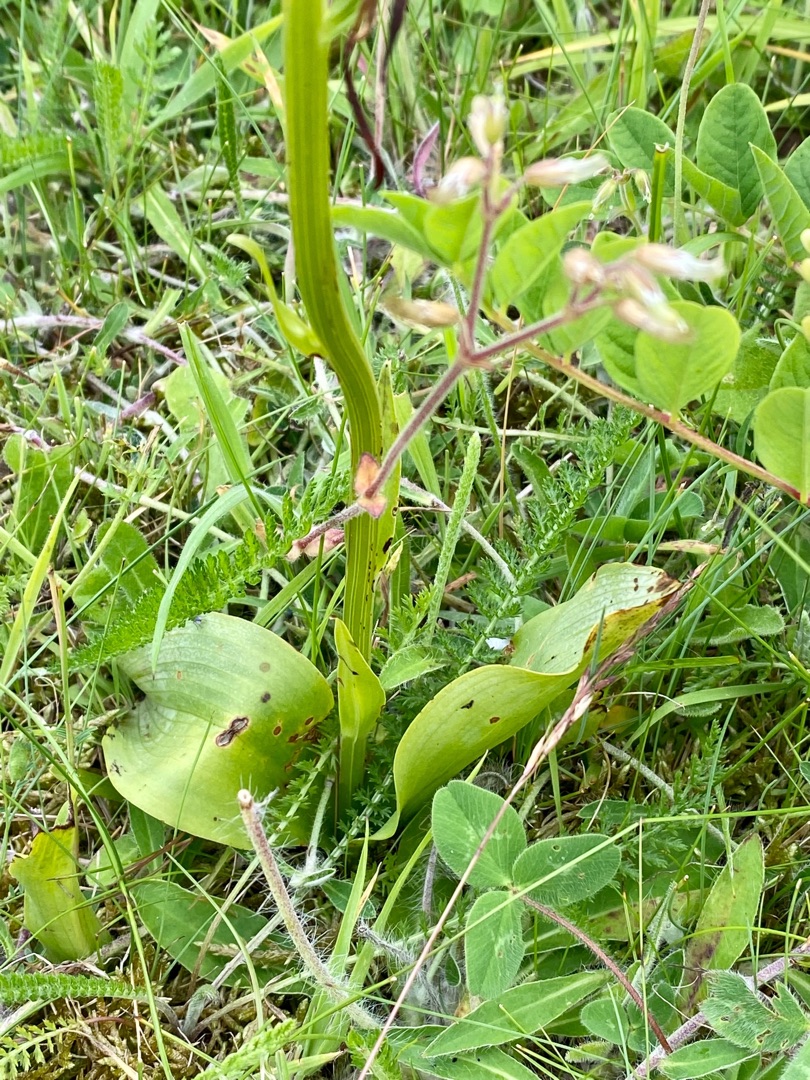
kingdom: Plantae
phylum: Tracheophyta
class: Liliopsida
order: Asparagales
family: Orchidaceae
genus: Platanthera
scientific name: Platanthera chlorantha
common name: Skov-gøgelilje
